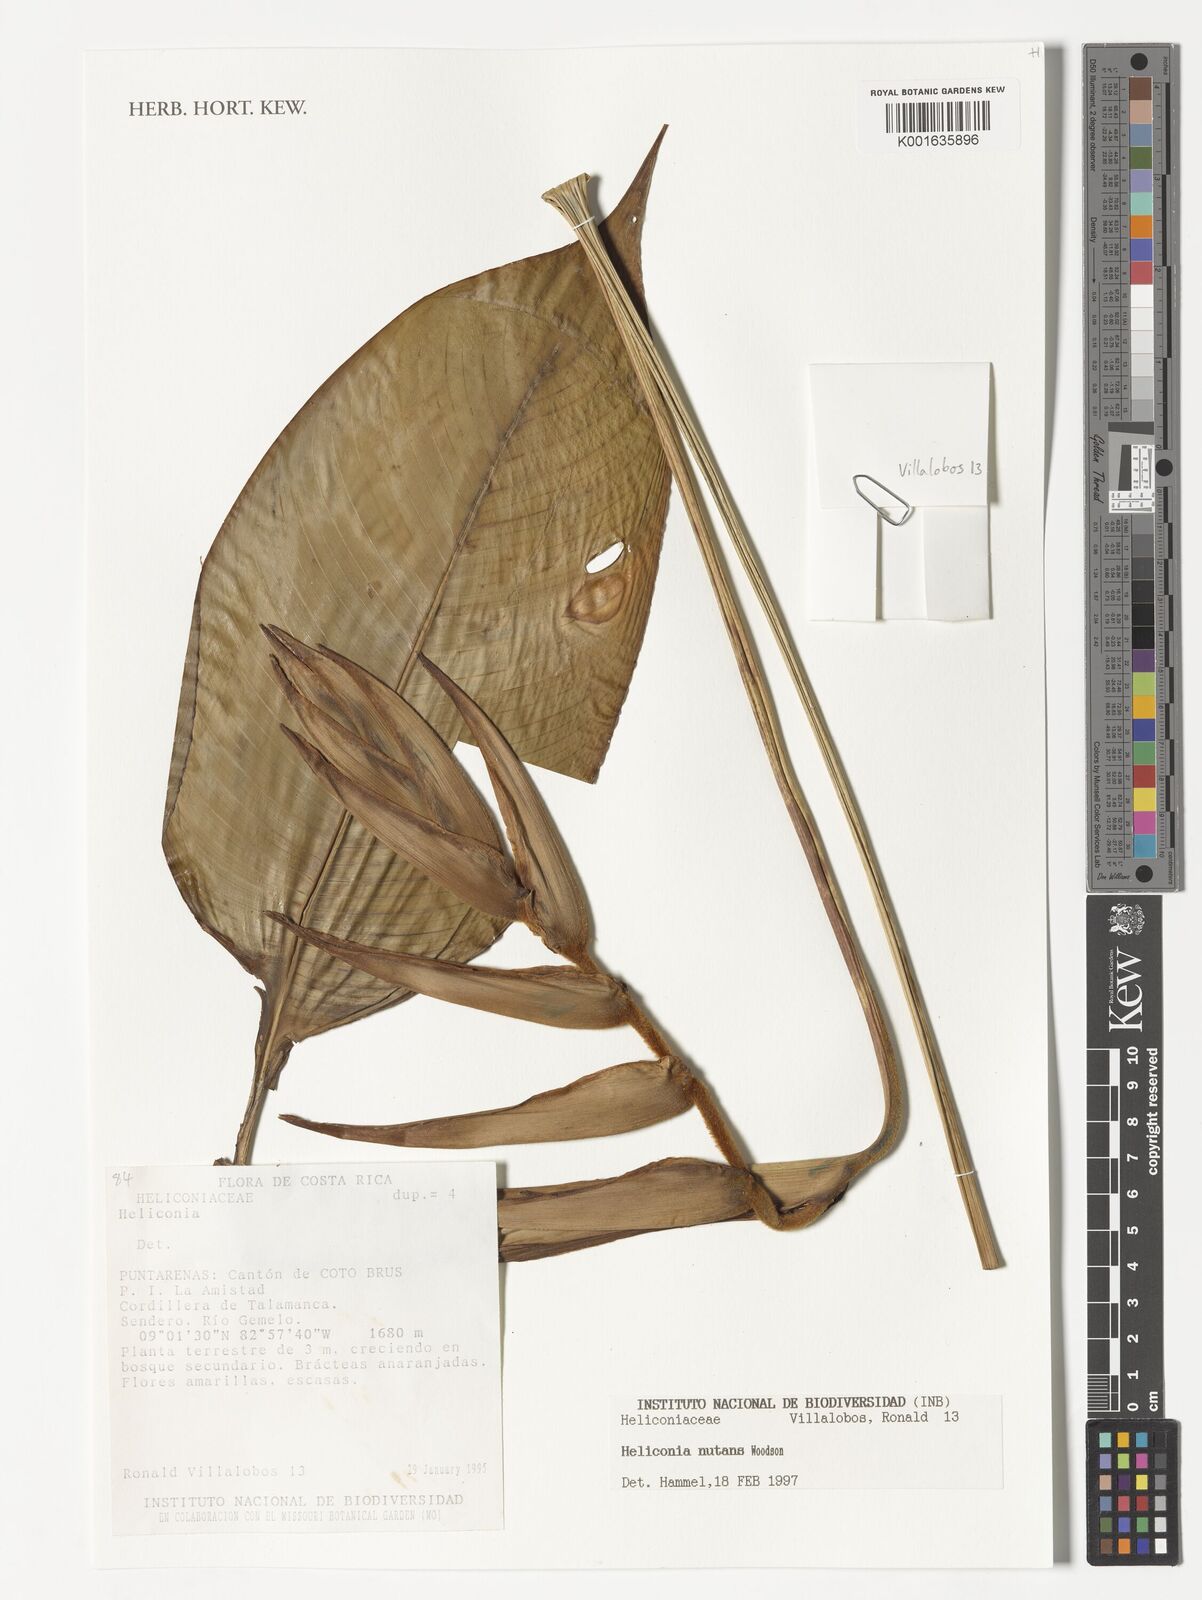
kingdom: Plantae
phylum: Tracheophyta
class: Liliopsida
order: Zingiberales
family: Heliconiaceae
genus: Heliconia
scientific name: Heliconia nutans
